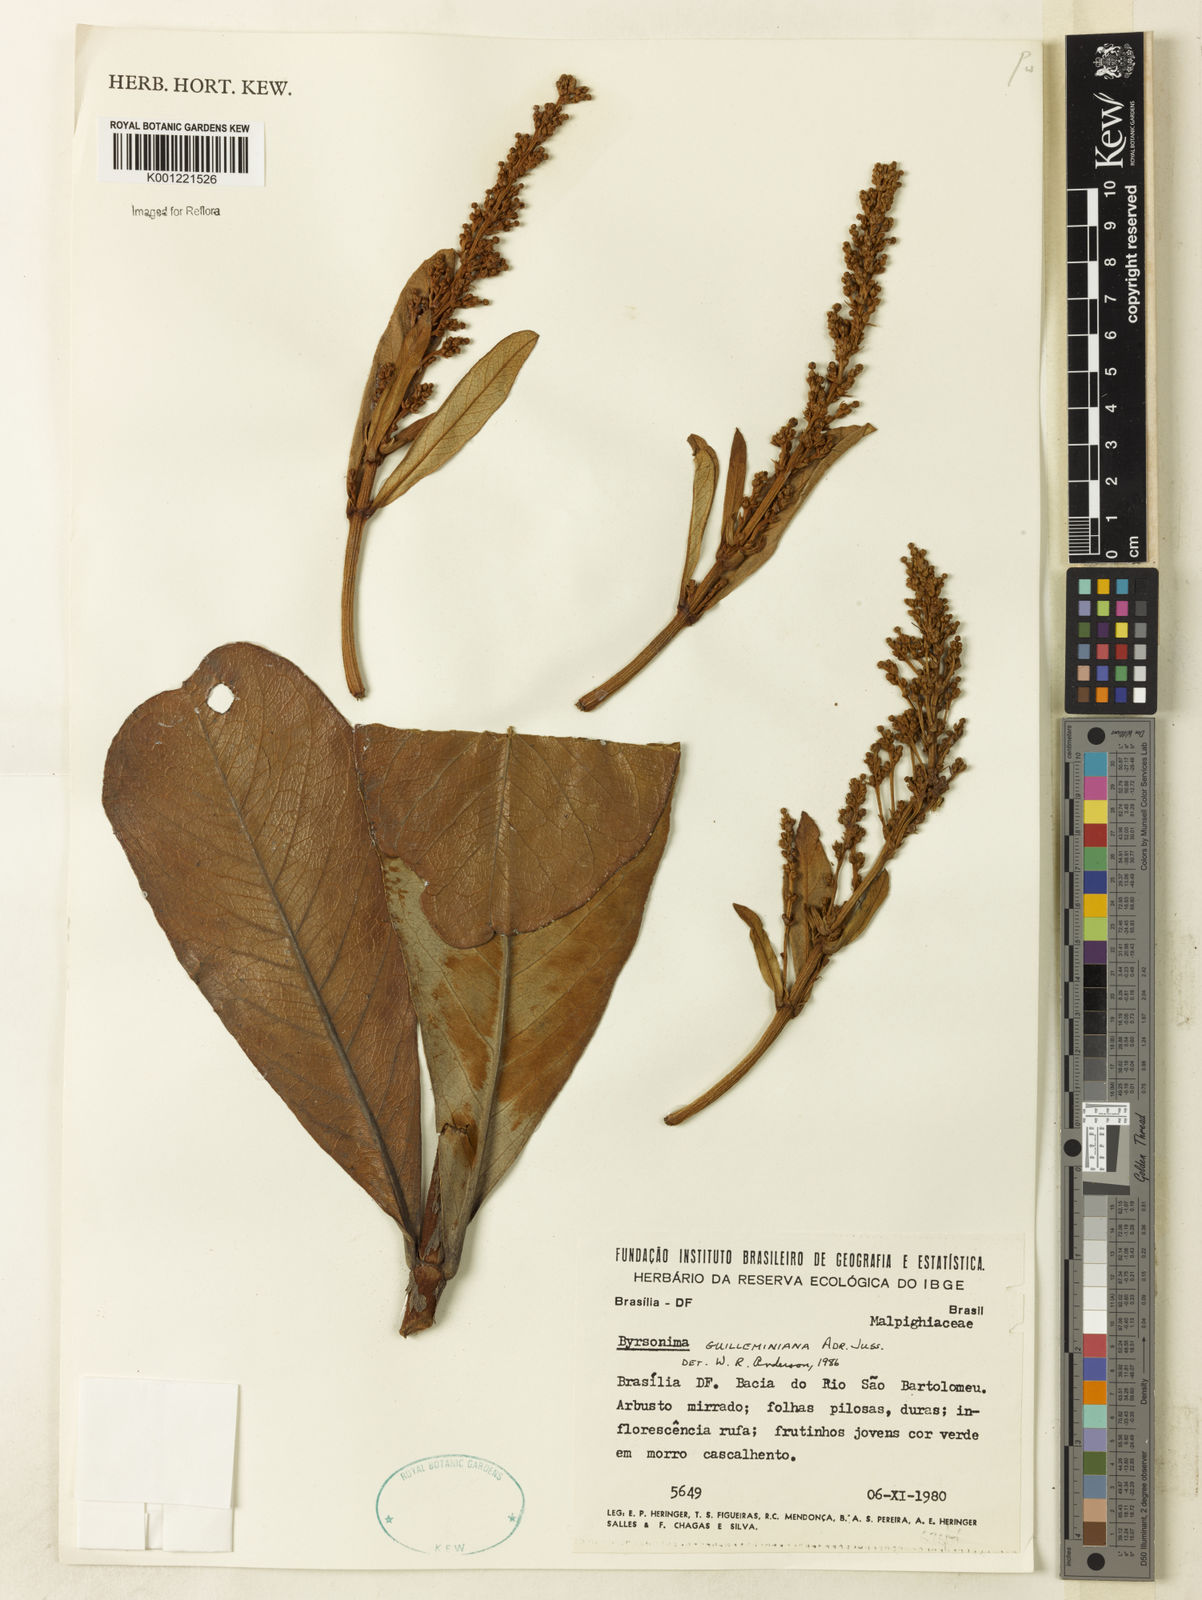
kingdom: Plantae
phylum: Tracheophyta
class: Magnoliopsida
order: Malpighiales
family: Malpighiaceae
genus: Byrsonima
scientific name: Byrsonima guilleminiana
